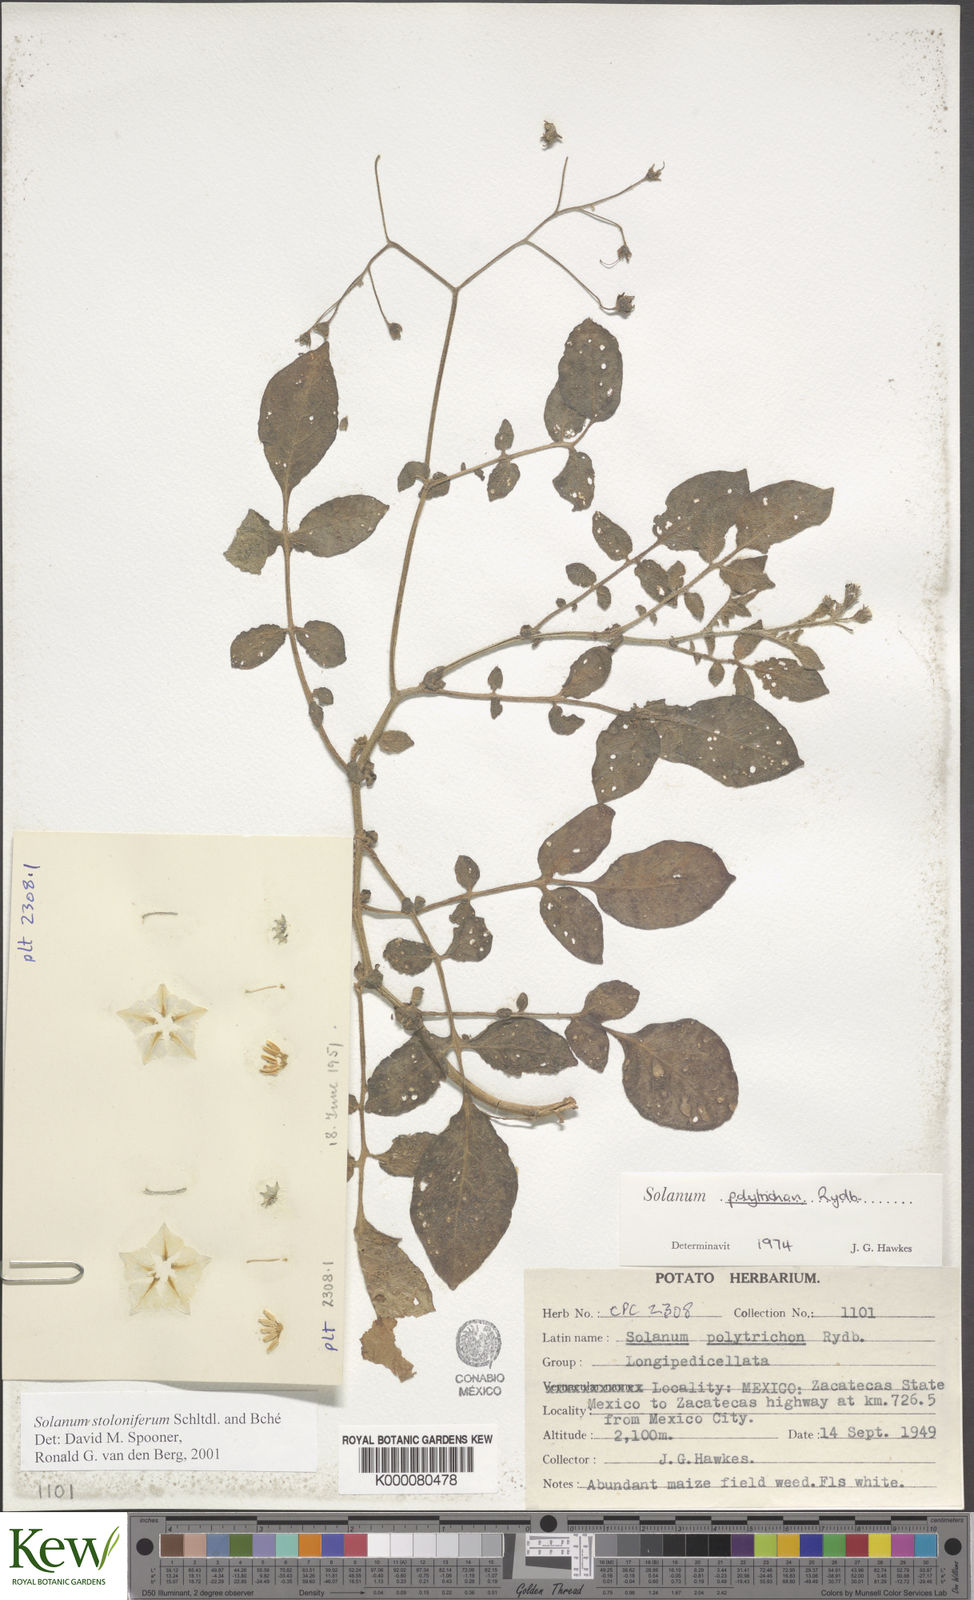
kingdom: Plantae
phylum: Tracheophyta
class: Magnoliopsida
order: Solanales
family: Solanaceae
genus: Solanum
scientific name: Solanum stoloniferum
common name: Fendler's nighshade
